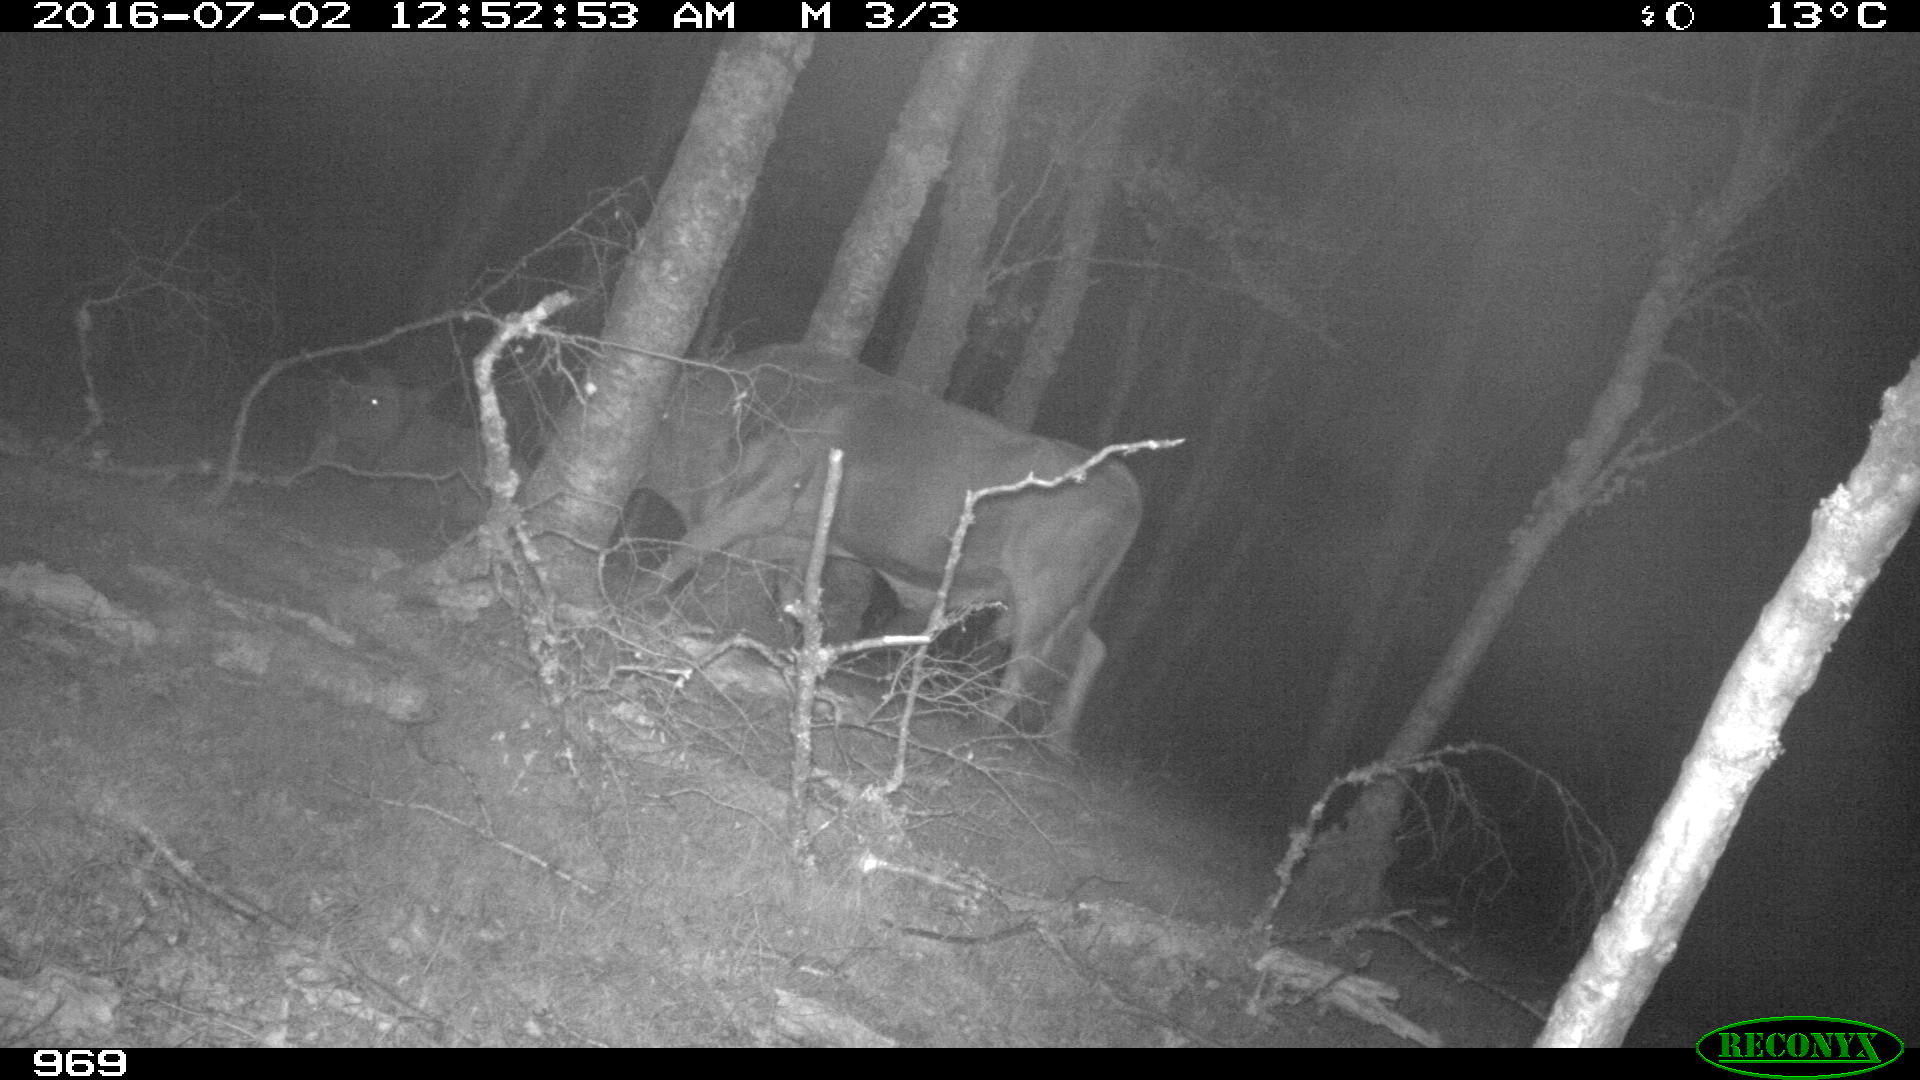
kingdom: Animalia
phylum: Chordata
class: Mammalia
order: Artiodactyla
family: Bovidae
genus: Bos
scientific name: Bos taurus
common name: Domesticated cattle
